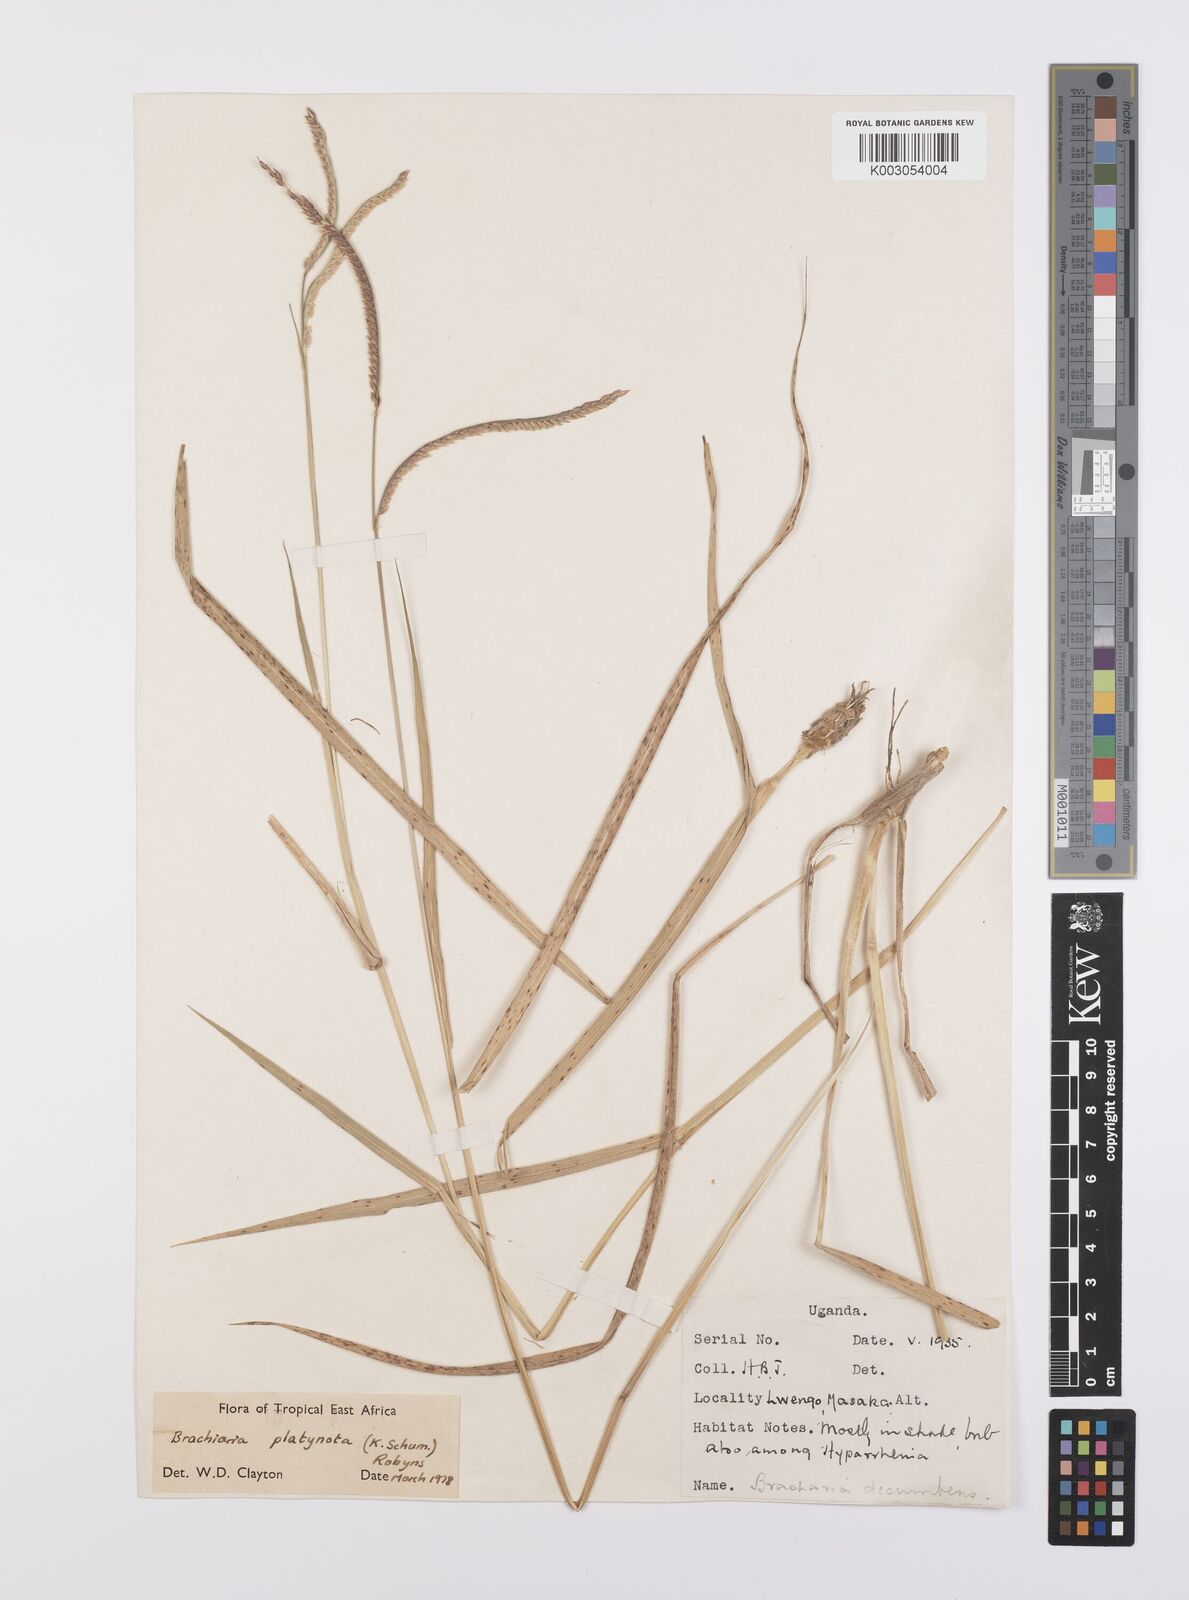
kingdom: Plantae
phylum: Tracheophyta
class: Liliopsida
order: Poales
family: Poaceae
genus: Urochloa
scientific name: Urochloa platynota
